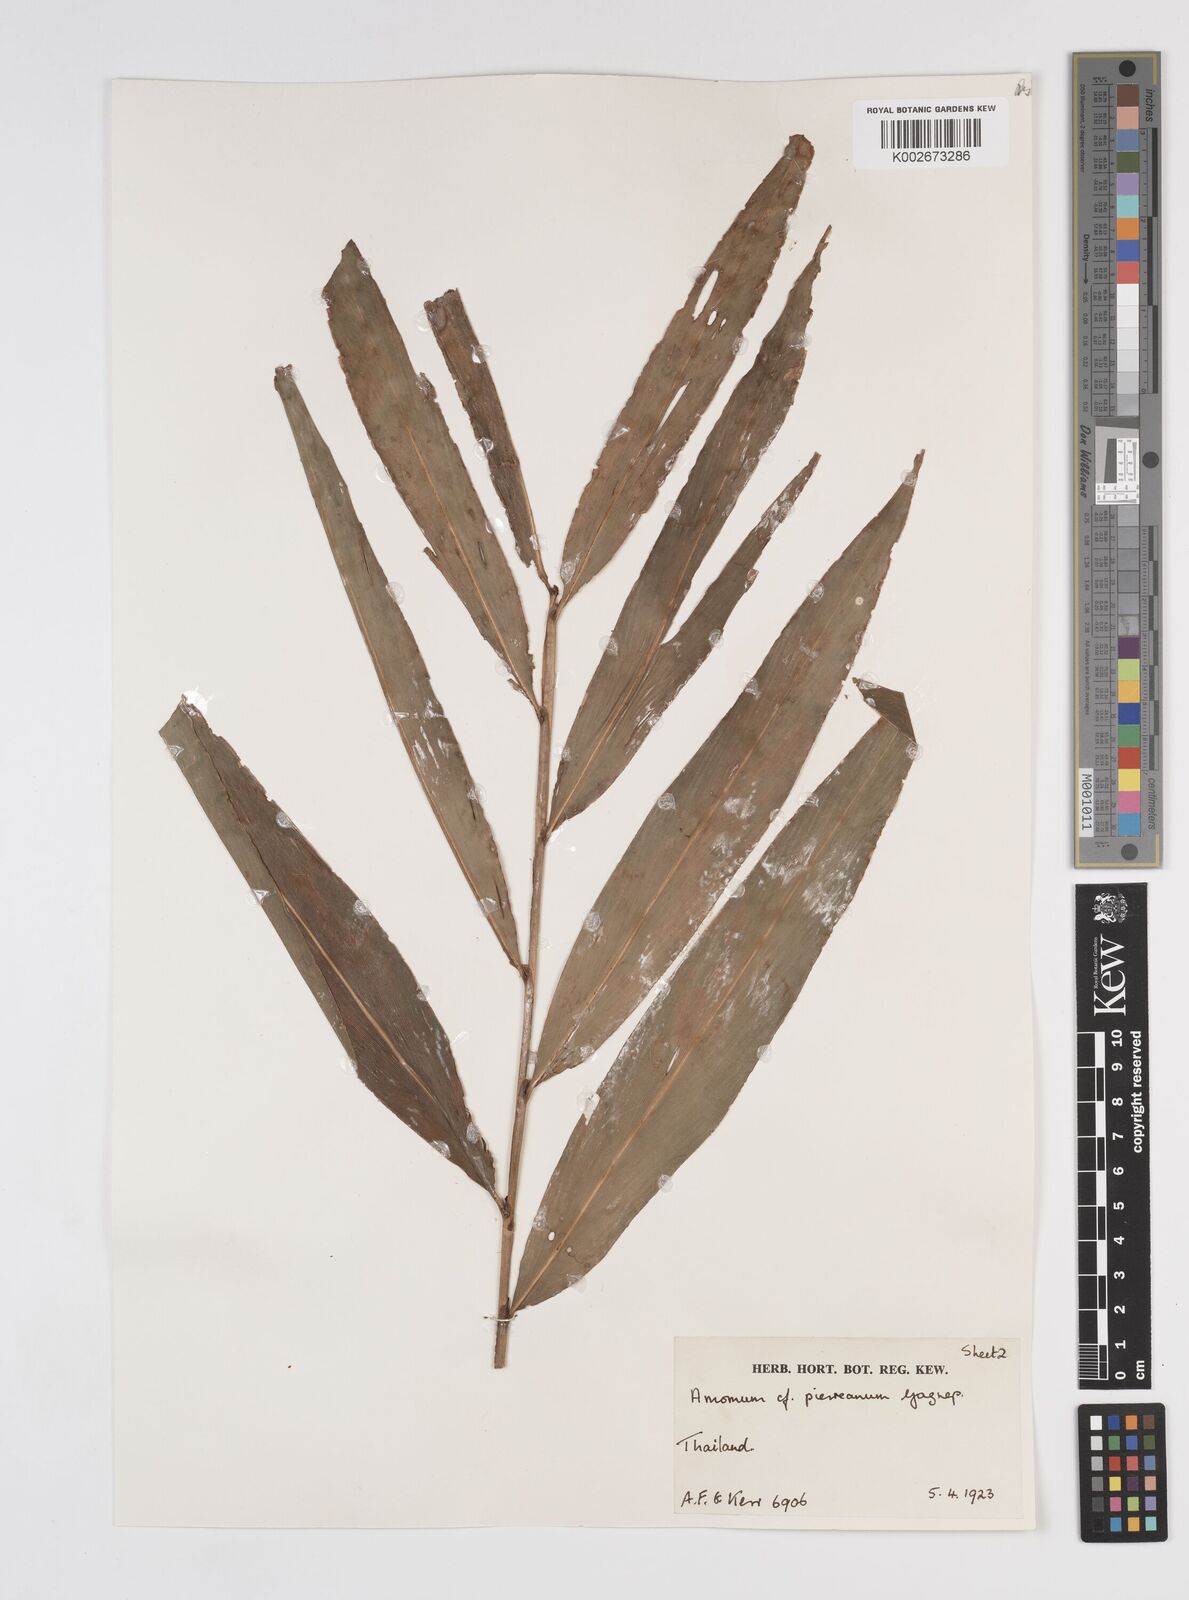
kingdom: Plantae
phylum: Tracheophyta
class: Liliopsida
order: Zingiberales
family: Zingiberaceae
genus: Amomum
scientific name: Amomum
